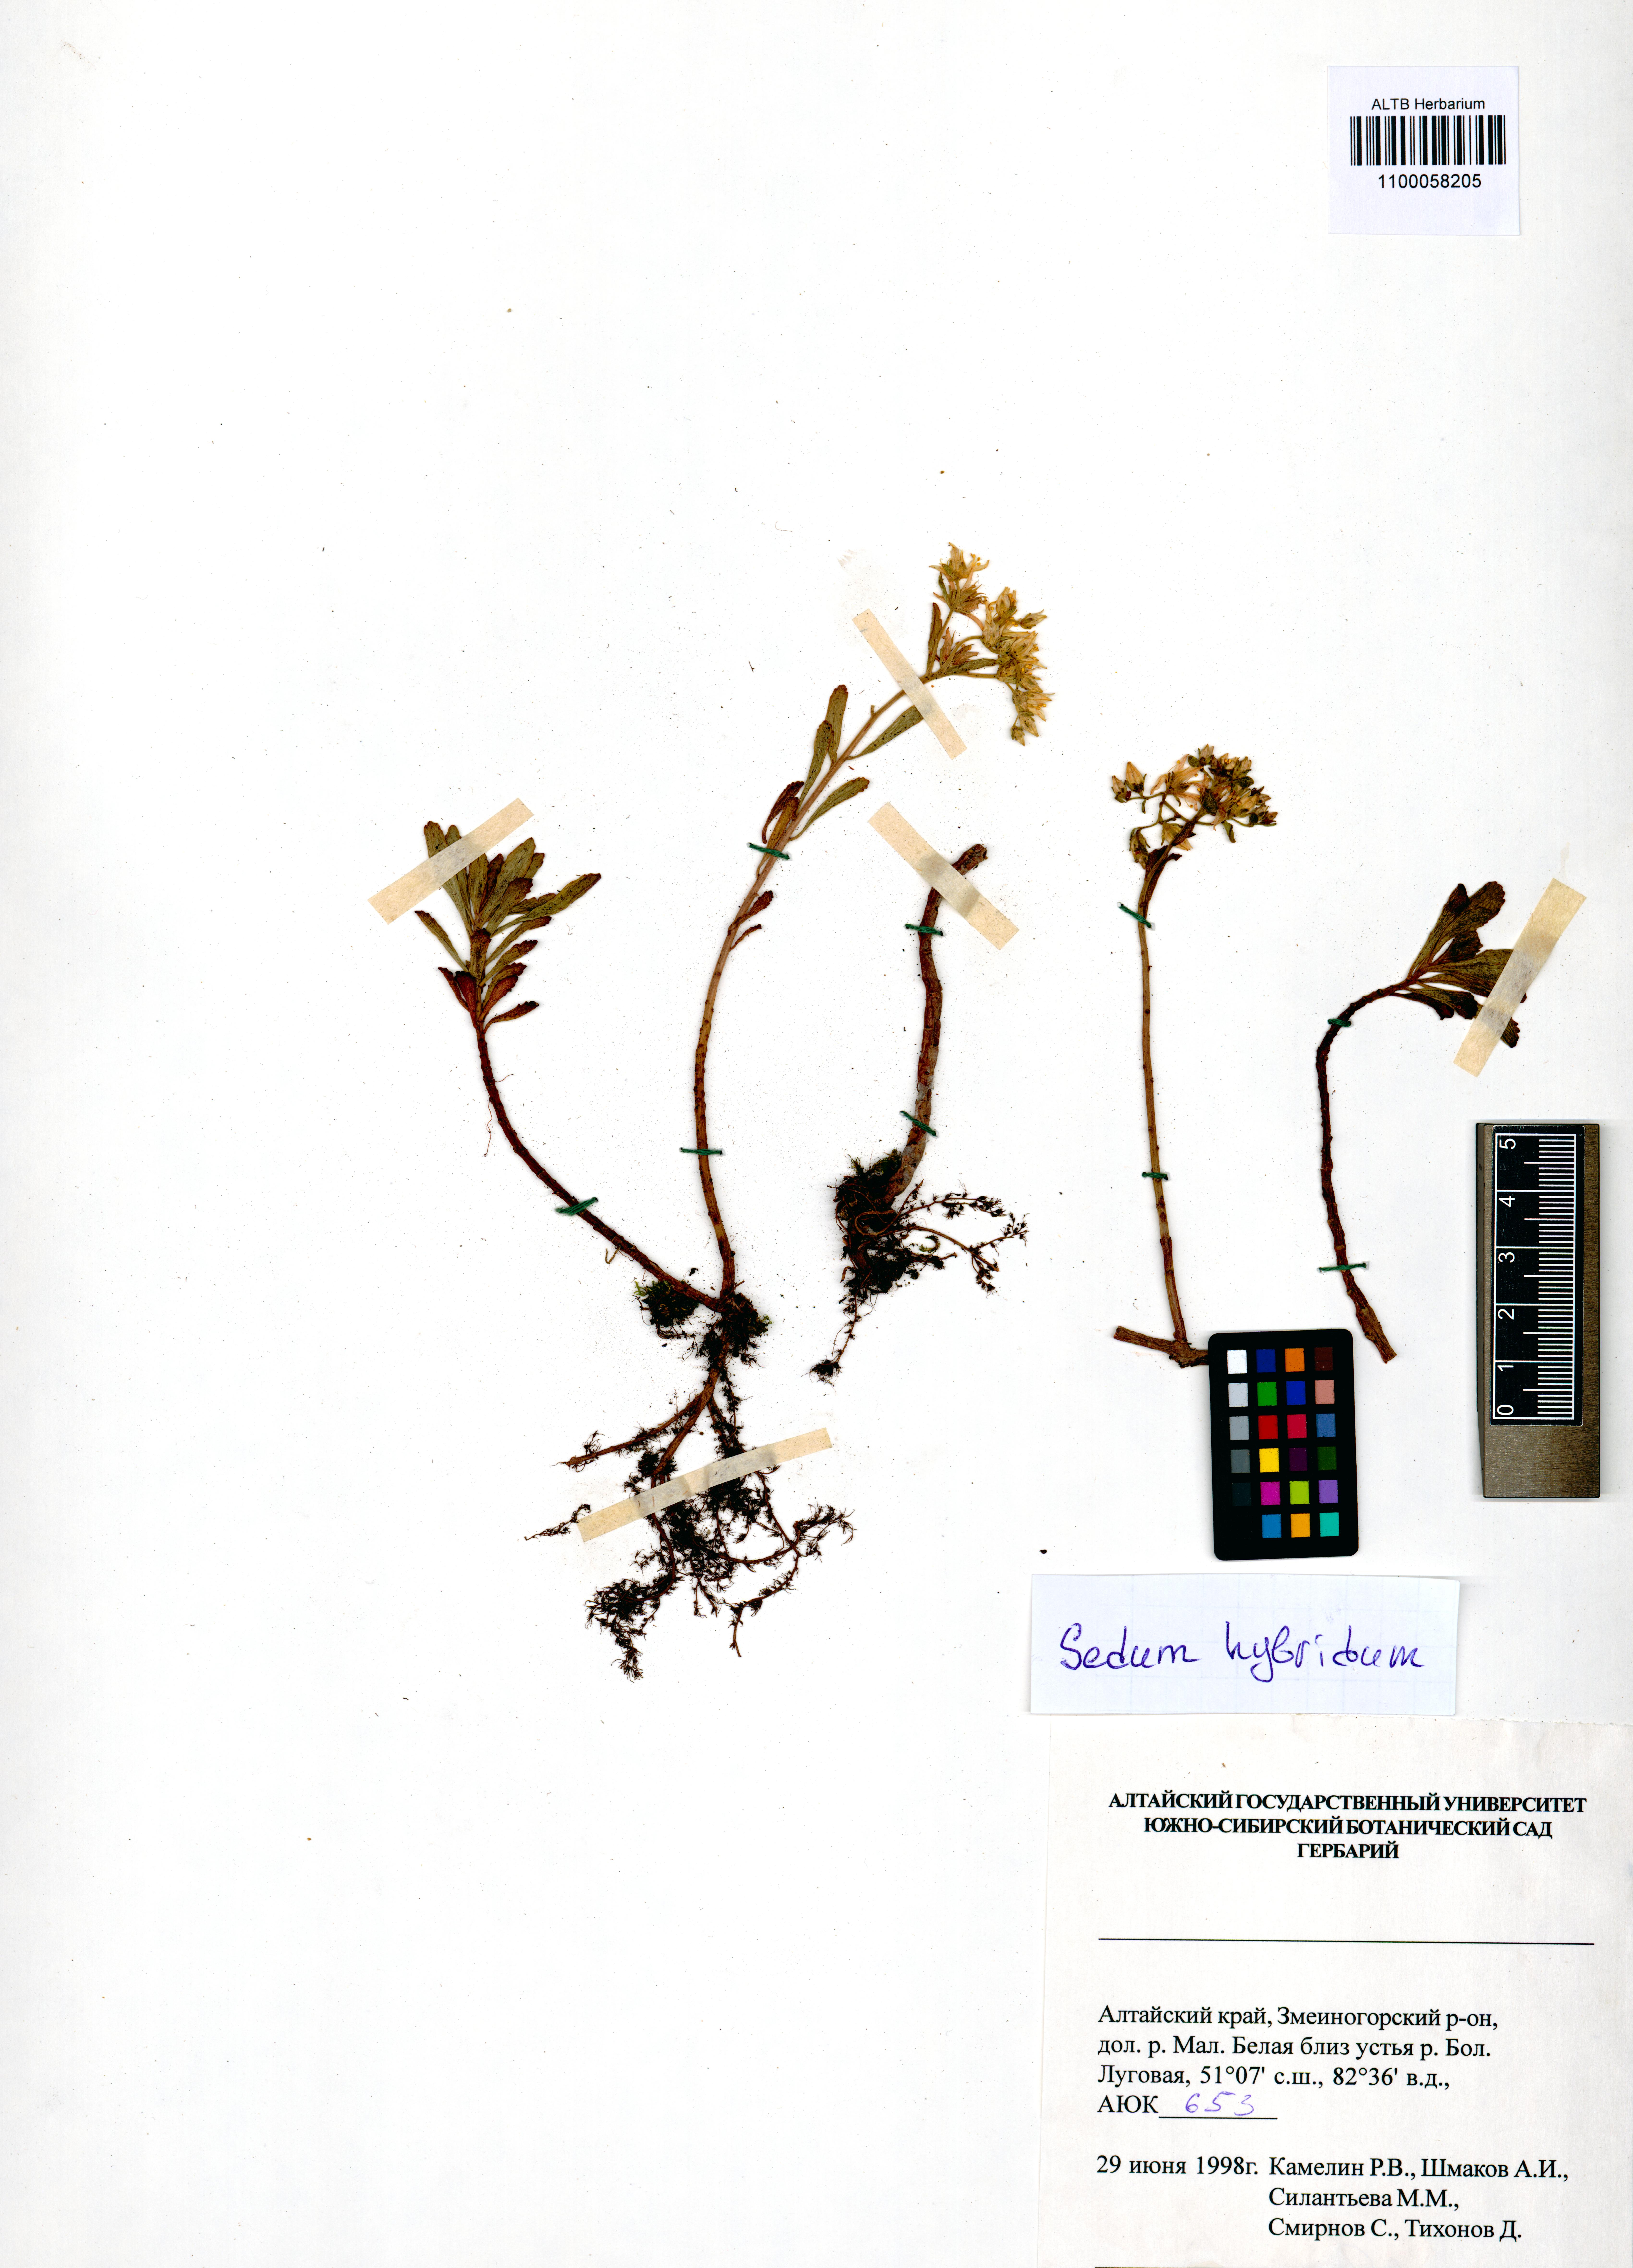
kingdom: Plantae
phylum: Tracheophyta
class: Magnoliopsida
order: Saxifragales
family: Crassulaceae
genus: Phedimus
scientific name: Phedimus hybridus
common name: Hybrid stonecrop
